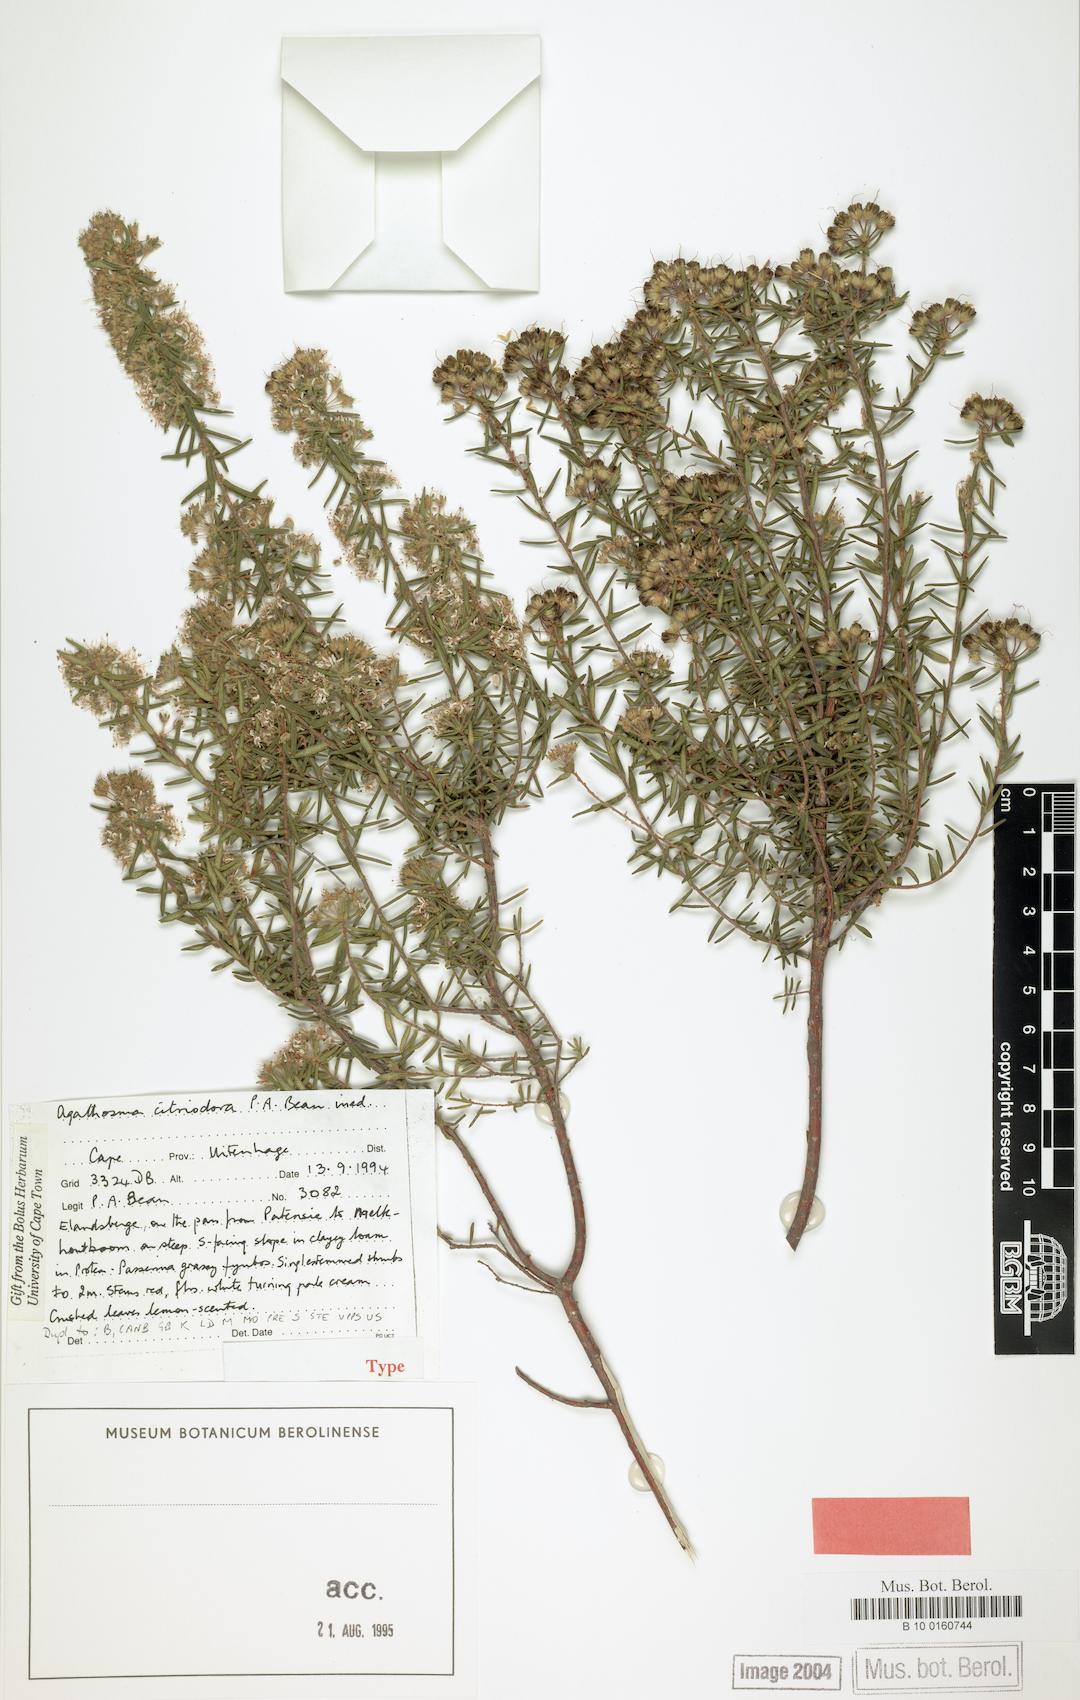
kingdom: Plantae
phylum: Tracheophyta
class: Magnoliopsida
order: Sapindales
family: Rutaceae
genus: Agathosma
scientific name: Agathosma
